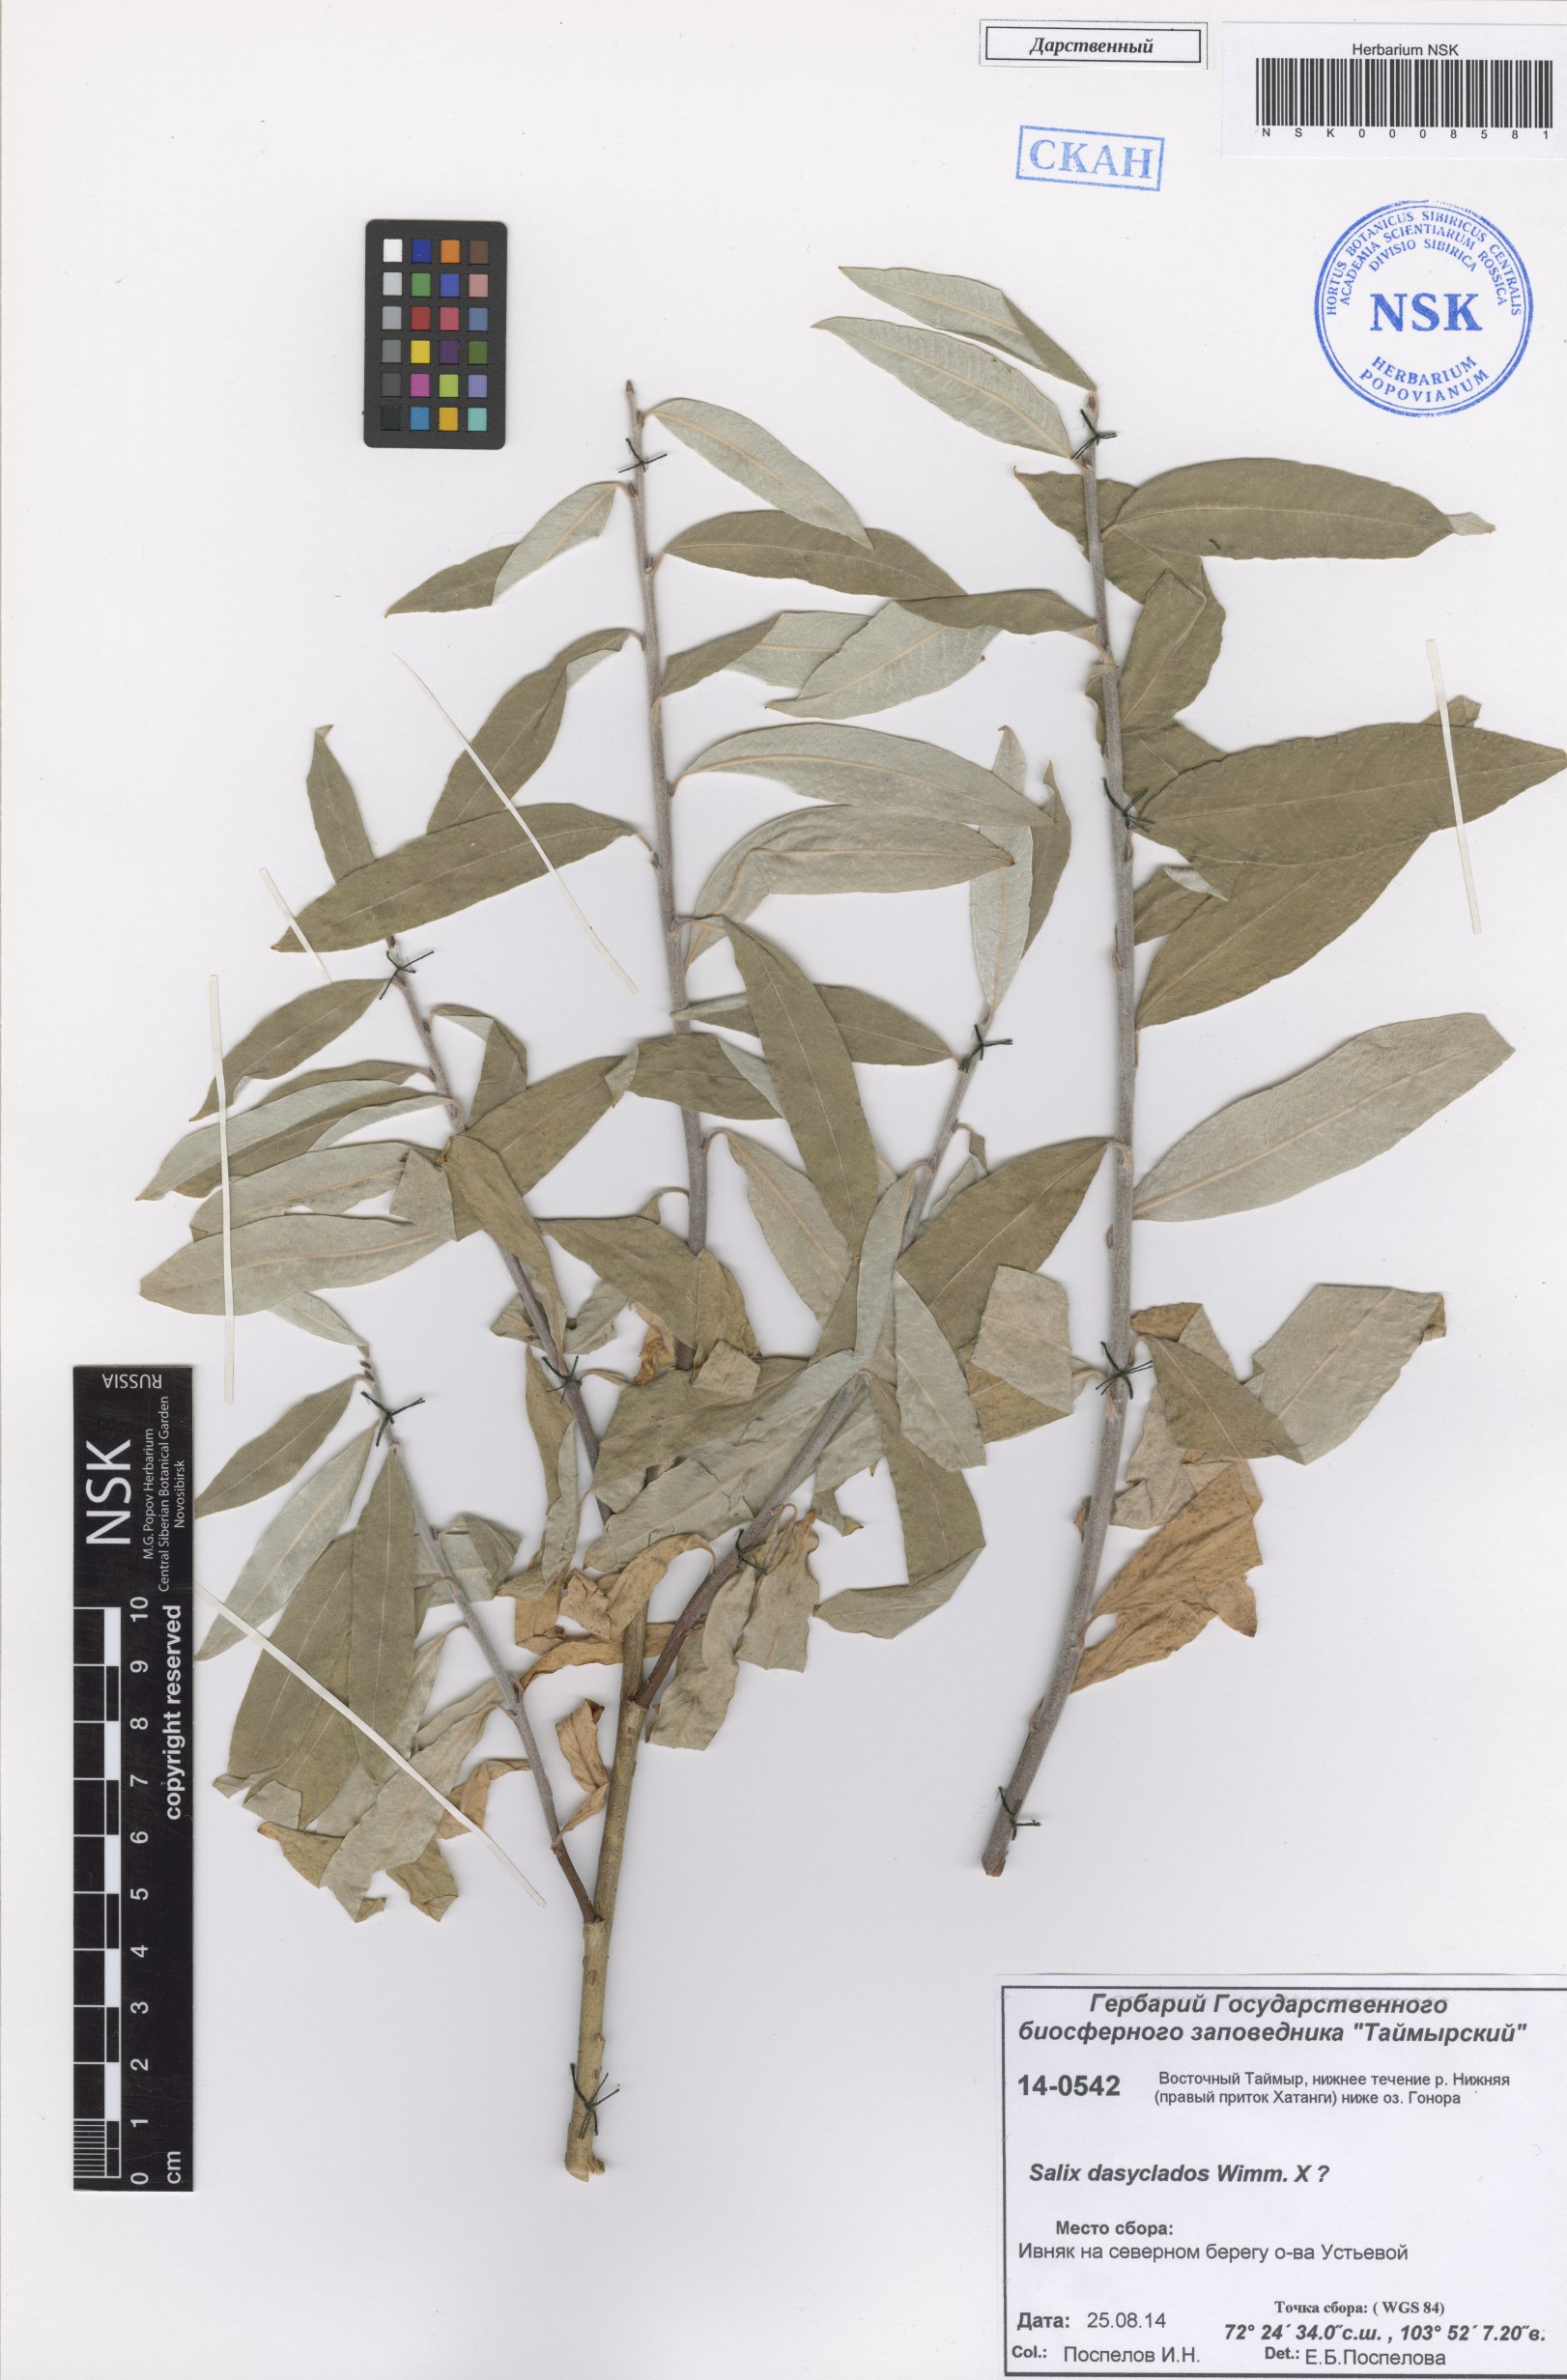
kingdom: Plantae
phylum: Tracheophyta
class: Magnoliopsida
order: Malpighiales
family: Salicaceae
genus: Salix
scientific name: Salix gmelinii
